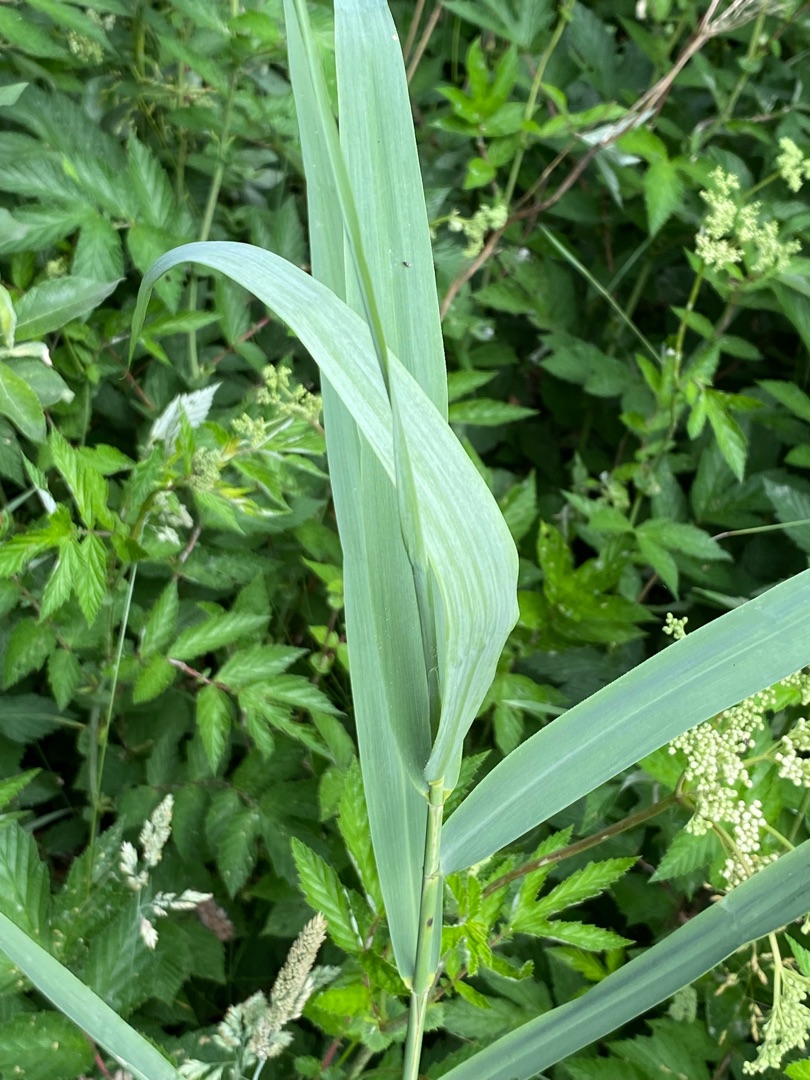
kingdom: Plantae
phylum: Tracheophyta
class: Liliopsida
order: Poales
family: Poaceae
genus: Phragmites
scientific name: Phragmites australis
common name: Tagrør
